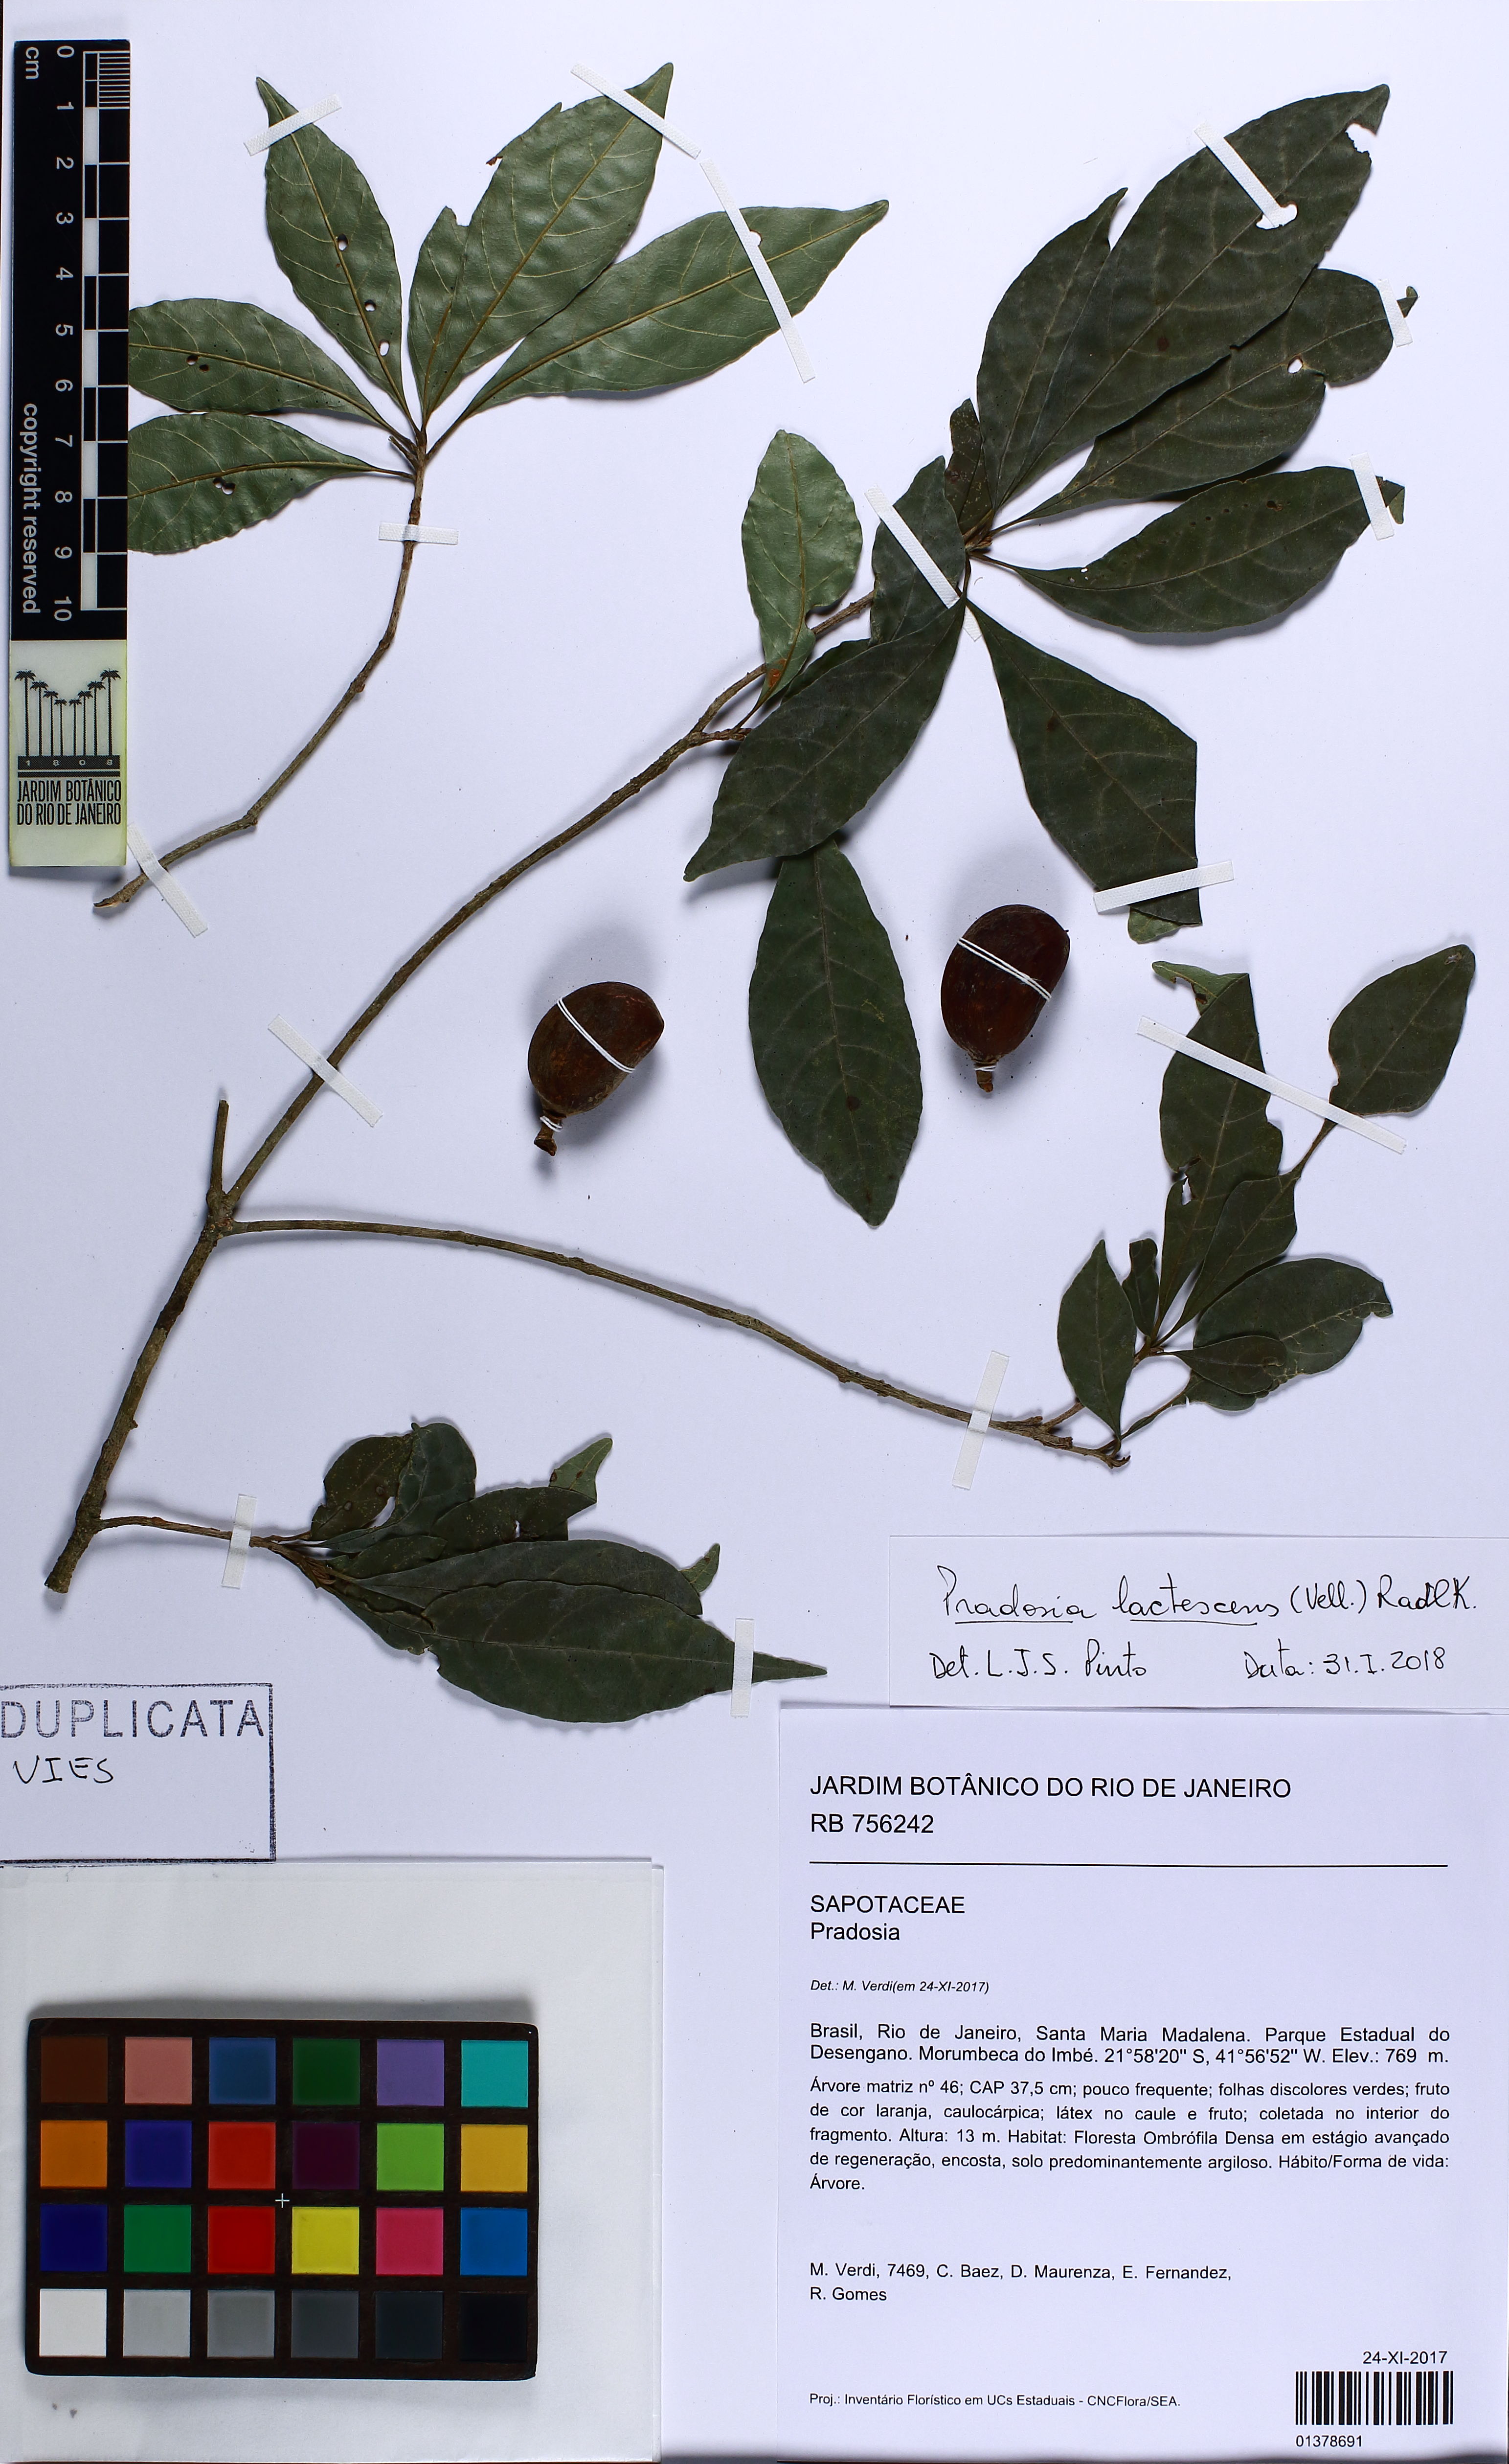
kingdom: Plantae
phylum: Tracheophyta
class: Magnoliopsida
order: Ericales
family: Sapotaceae
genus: Pradosia
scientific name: Pradosia lactescens
